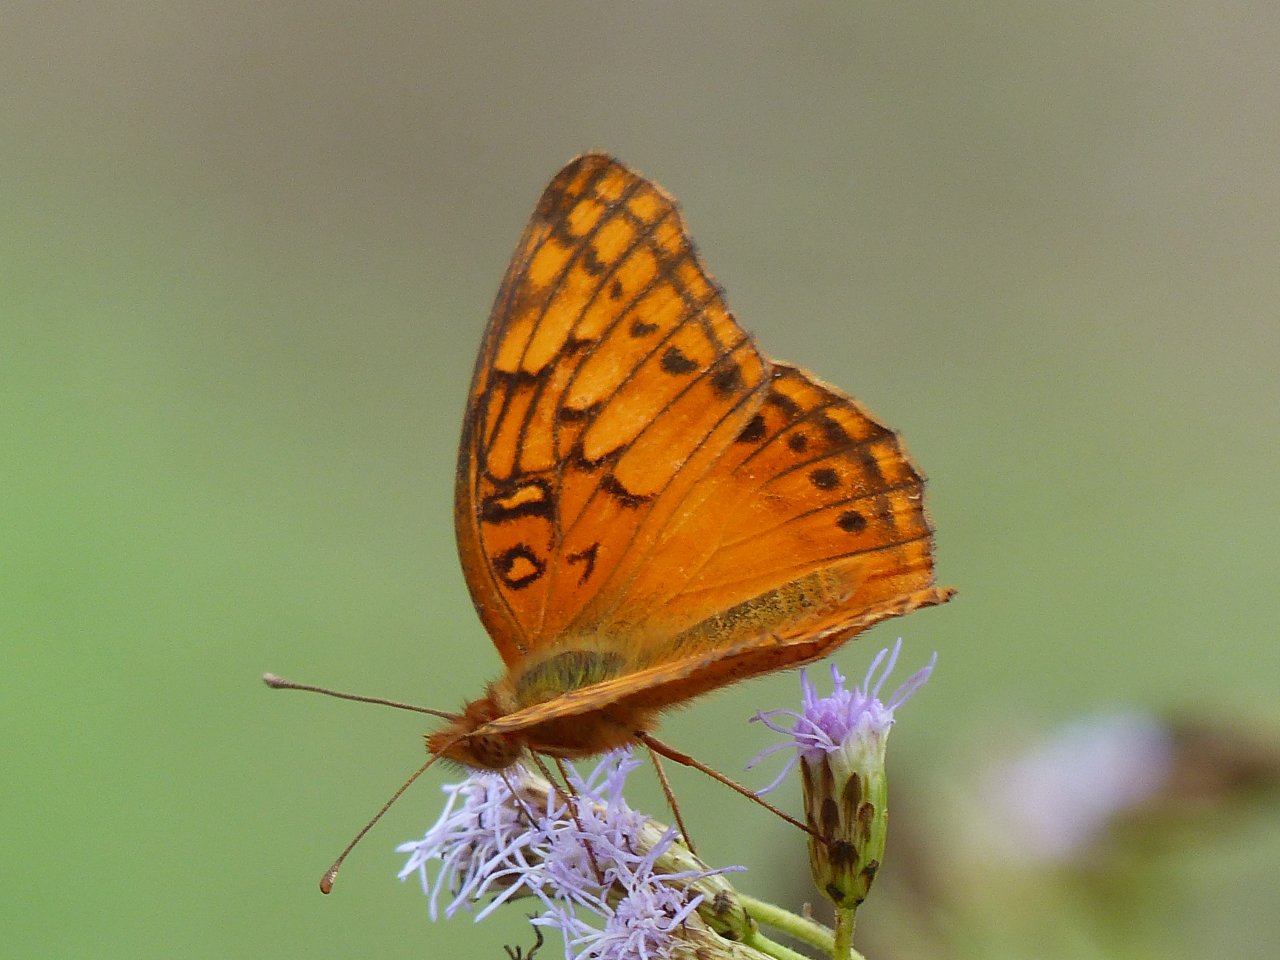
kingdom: Animalia
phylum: Arthropoda
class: Insecta
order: Lepidoptera
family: Nymphalidae
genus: Euptoieta
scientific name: Euptoieta hegesia
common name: Mexican Fritillary
